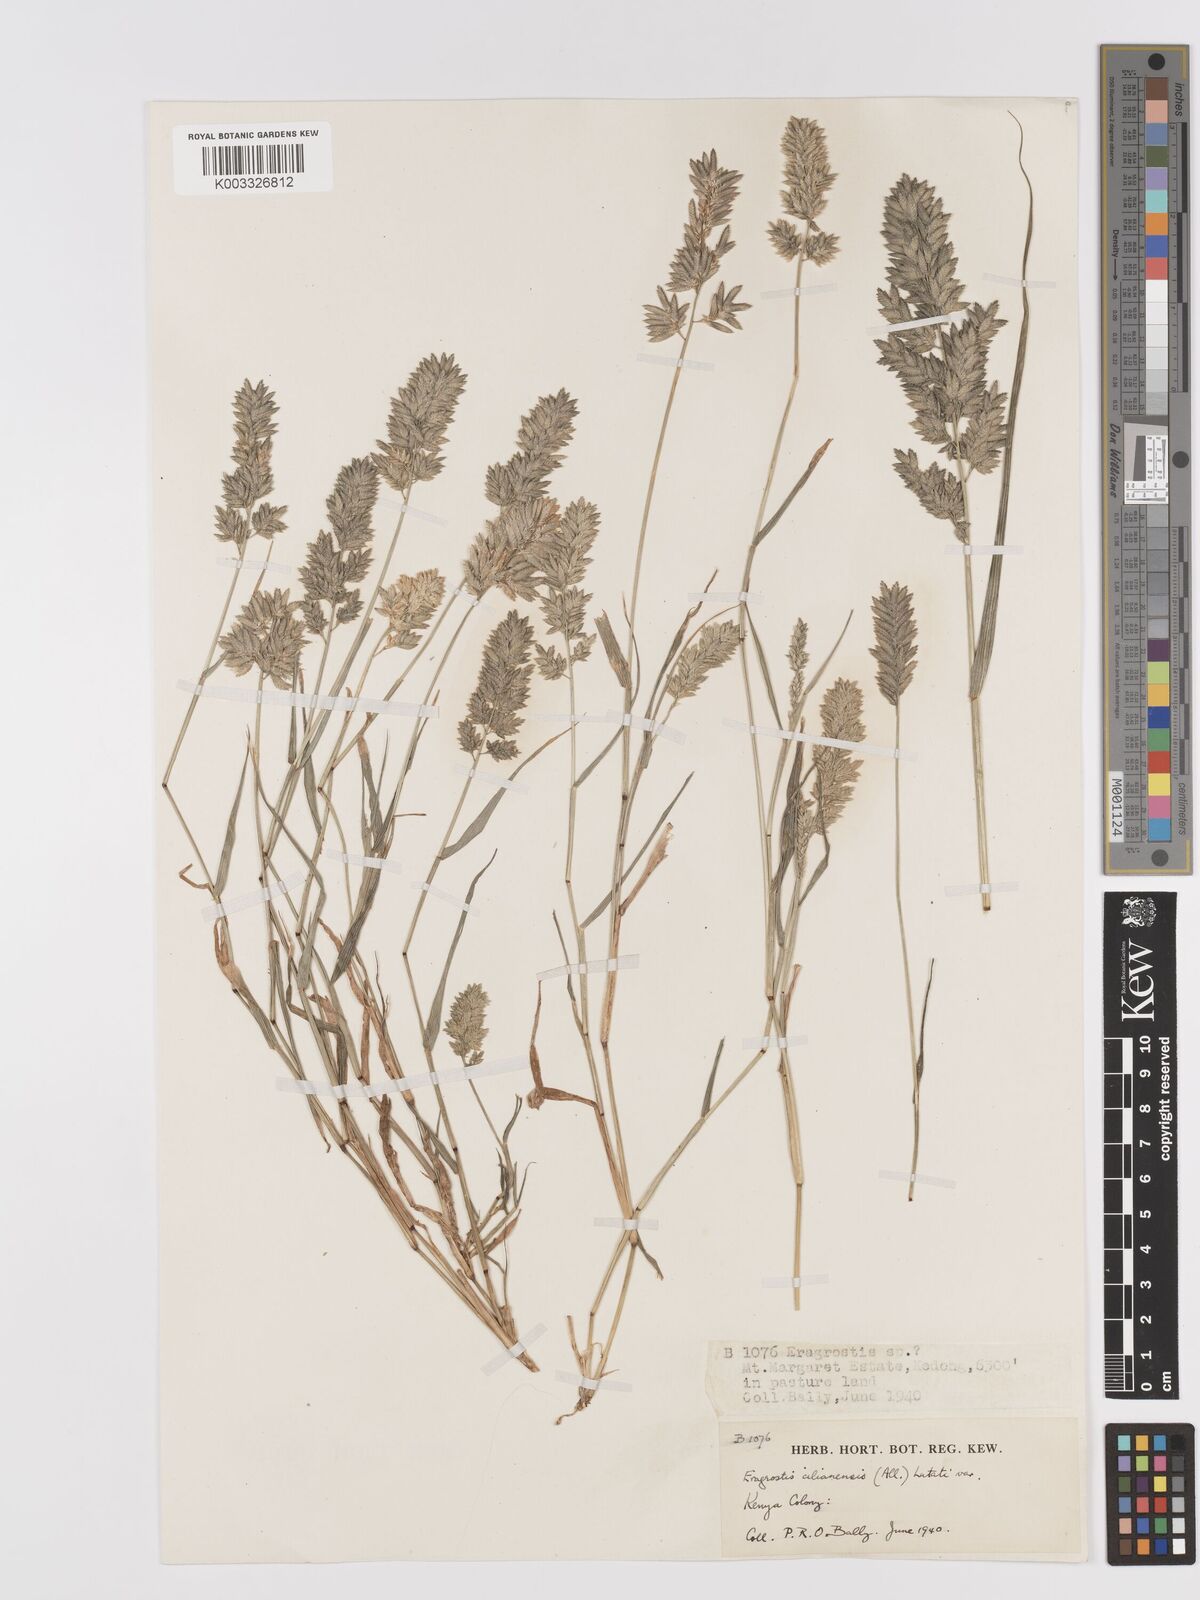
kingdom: Plantae
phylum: Tracheophyta
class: Liliopsida
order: Poales
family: Poaceae
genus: Eragrostis
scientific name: Eragrostis cilianensis
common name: Stinkgrass
